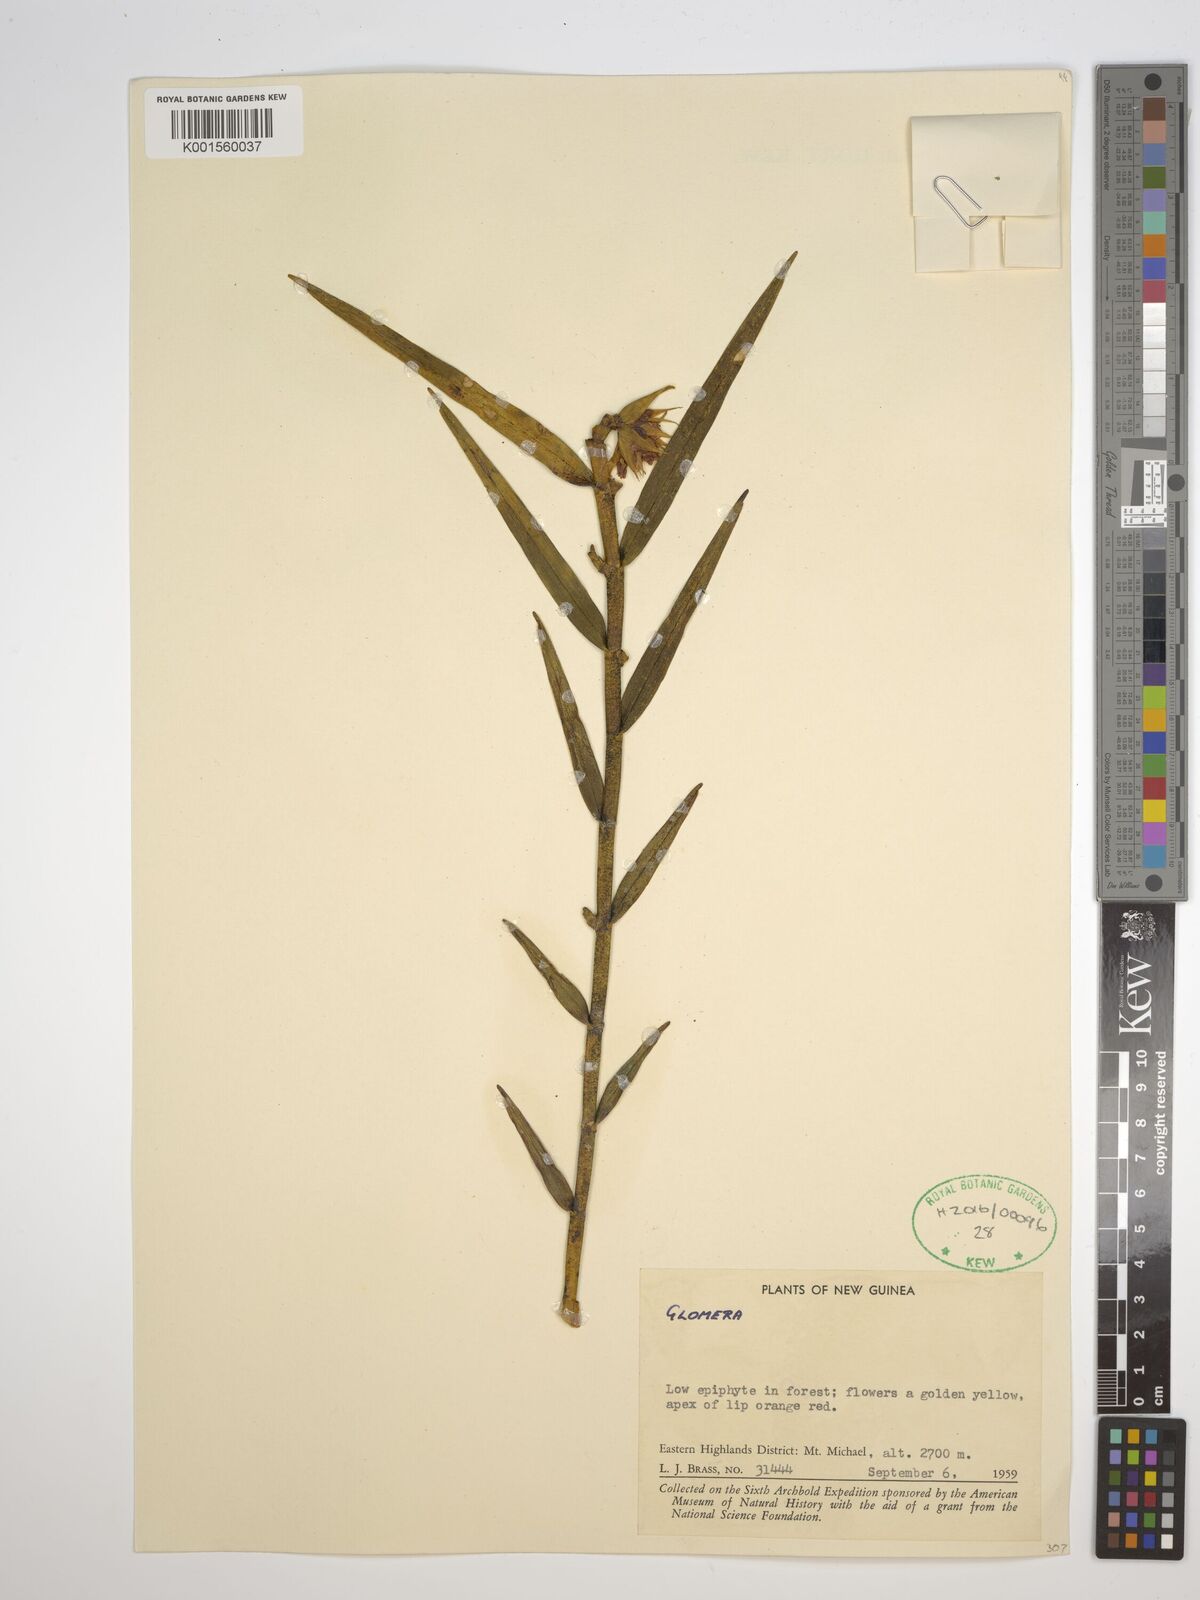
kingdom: Plantae
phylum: Tracheophyta
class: Liliopsida
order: Asparagales
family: Orchidaceae
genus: Glomera
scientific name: Glomera
